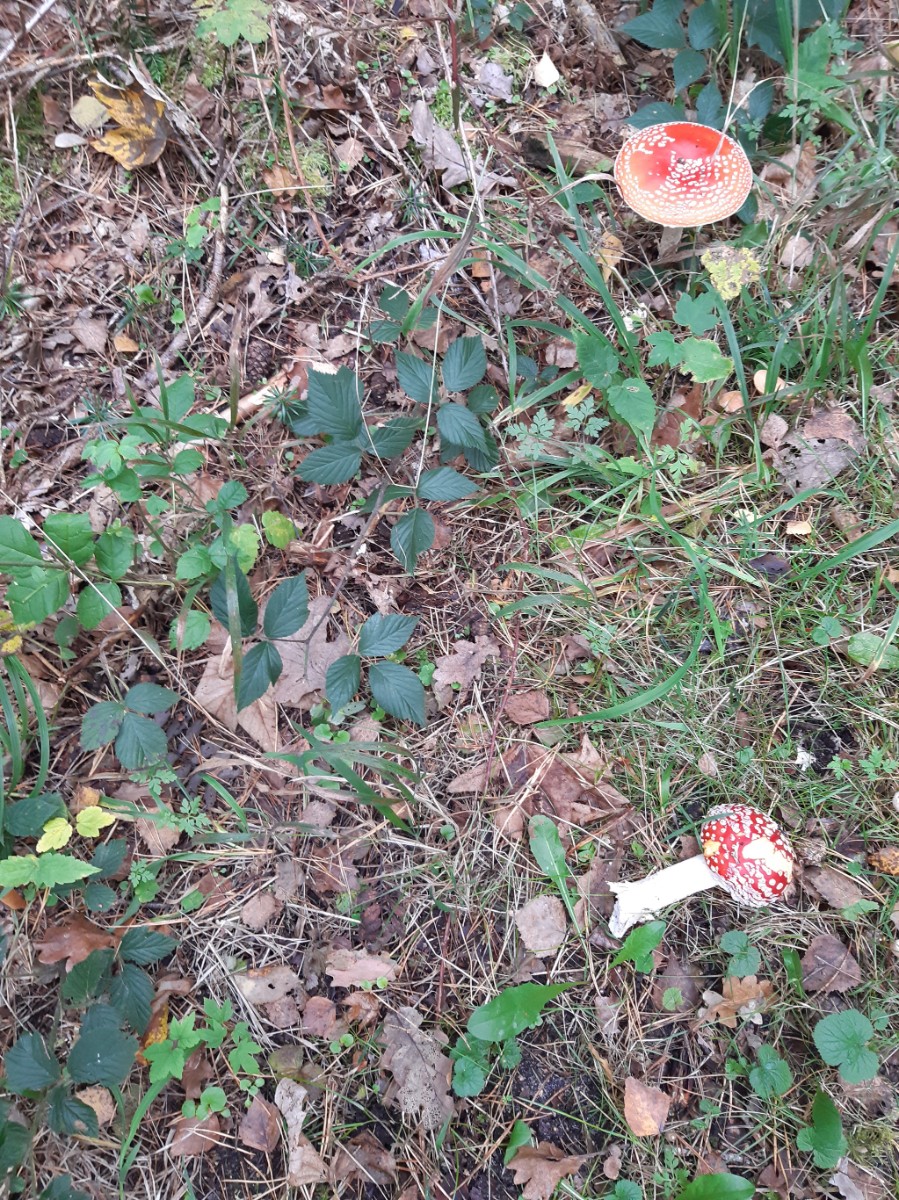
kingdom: Fungi
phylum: Basidiomycota
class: Agaricomycetes
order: Agaricales
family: Amanitaceae
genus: Amanita
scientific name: Amanita muscaria
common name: rød fluesvamp
